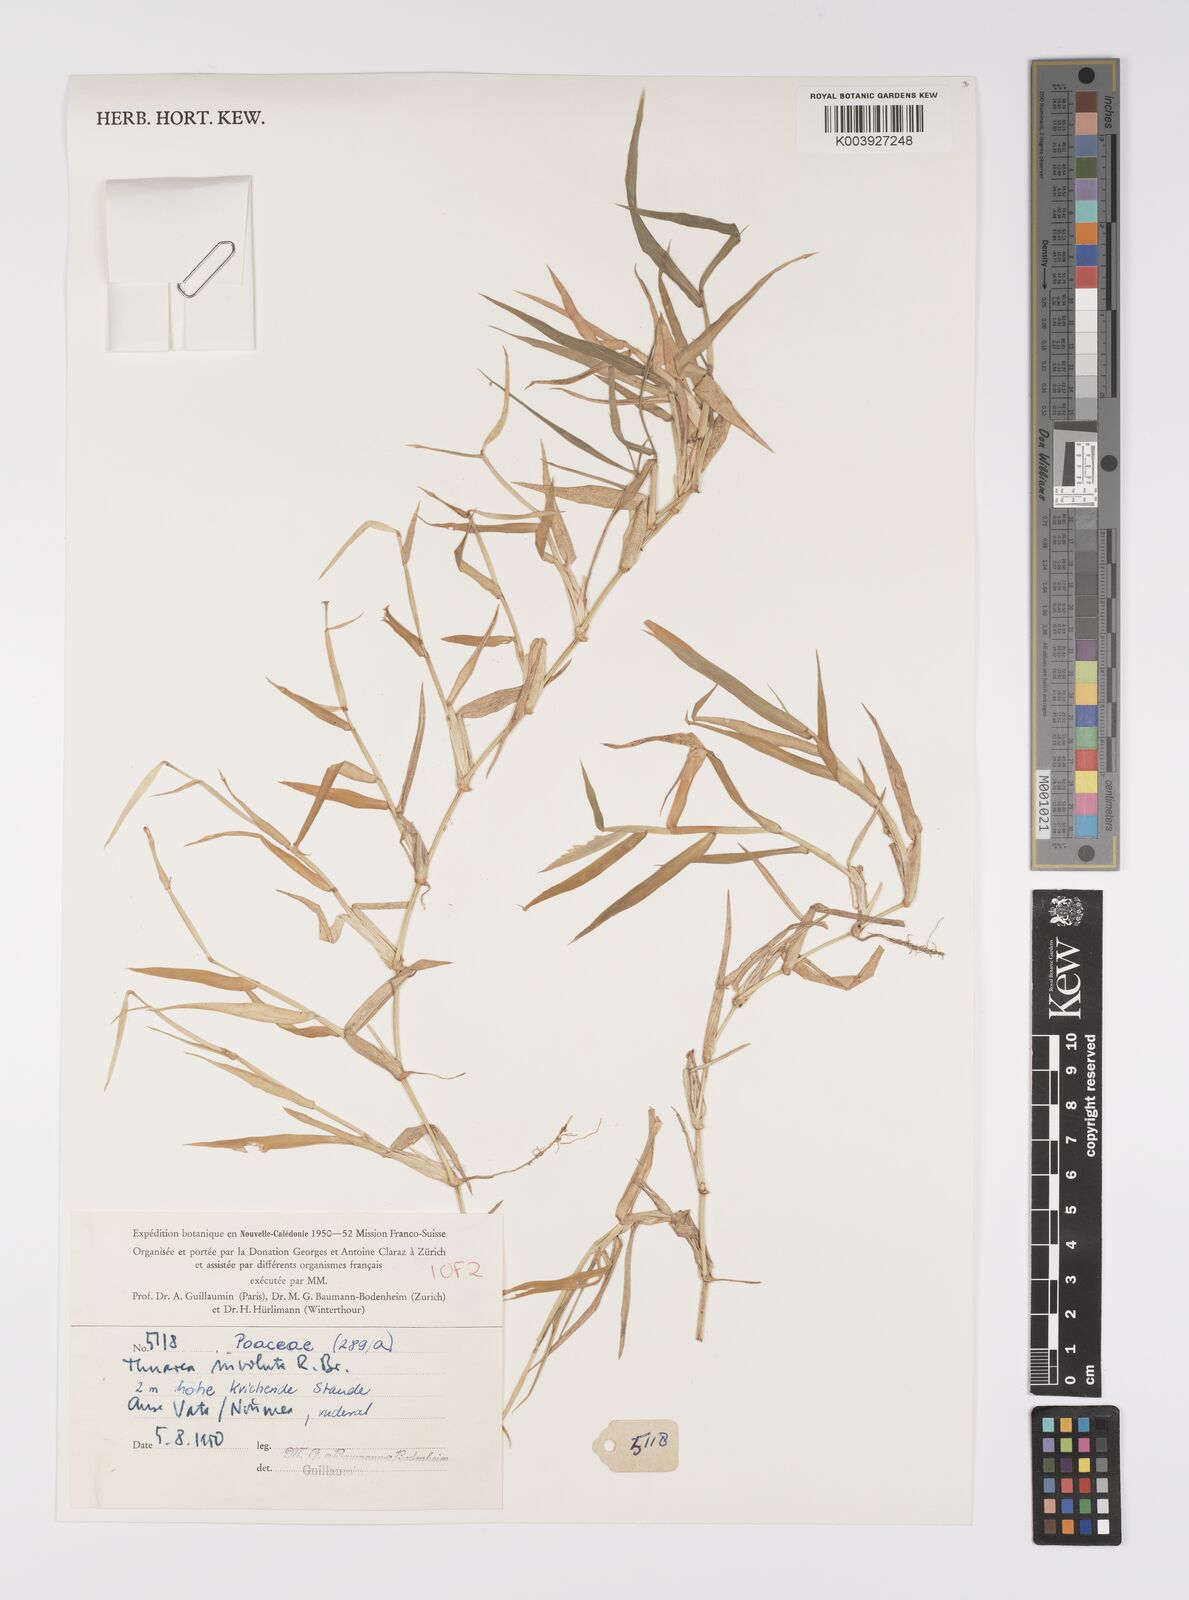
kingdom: Plantae
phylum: Tracheophyta
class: Liliopsida
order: Poales
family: Poaceae
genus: Thuarea
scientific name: Thuarea involuta
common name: Tropical beach grass
